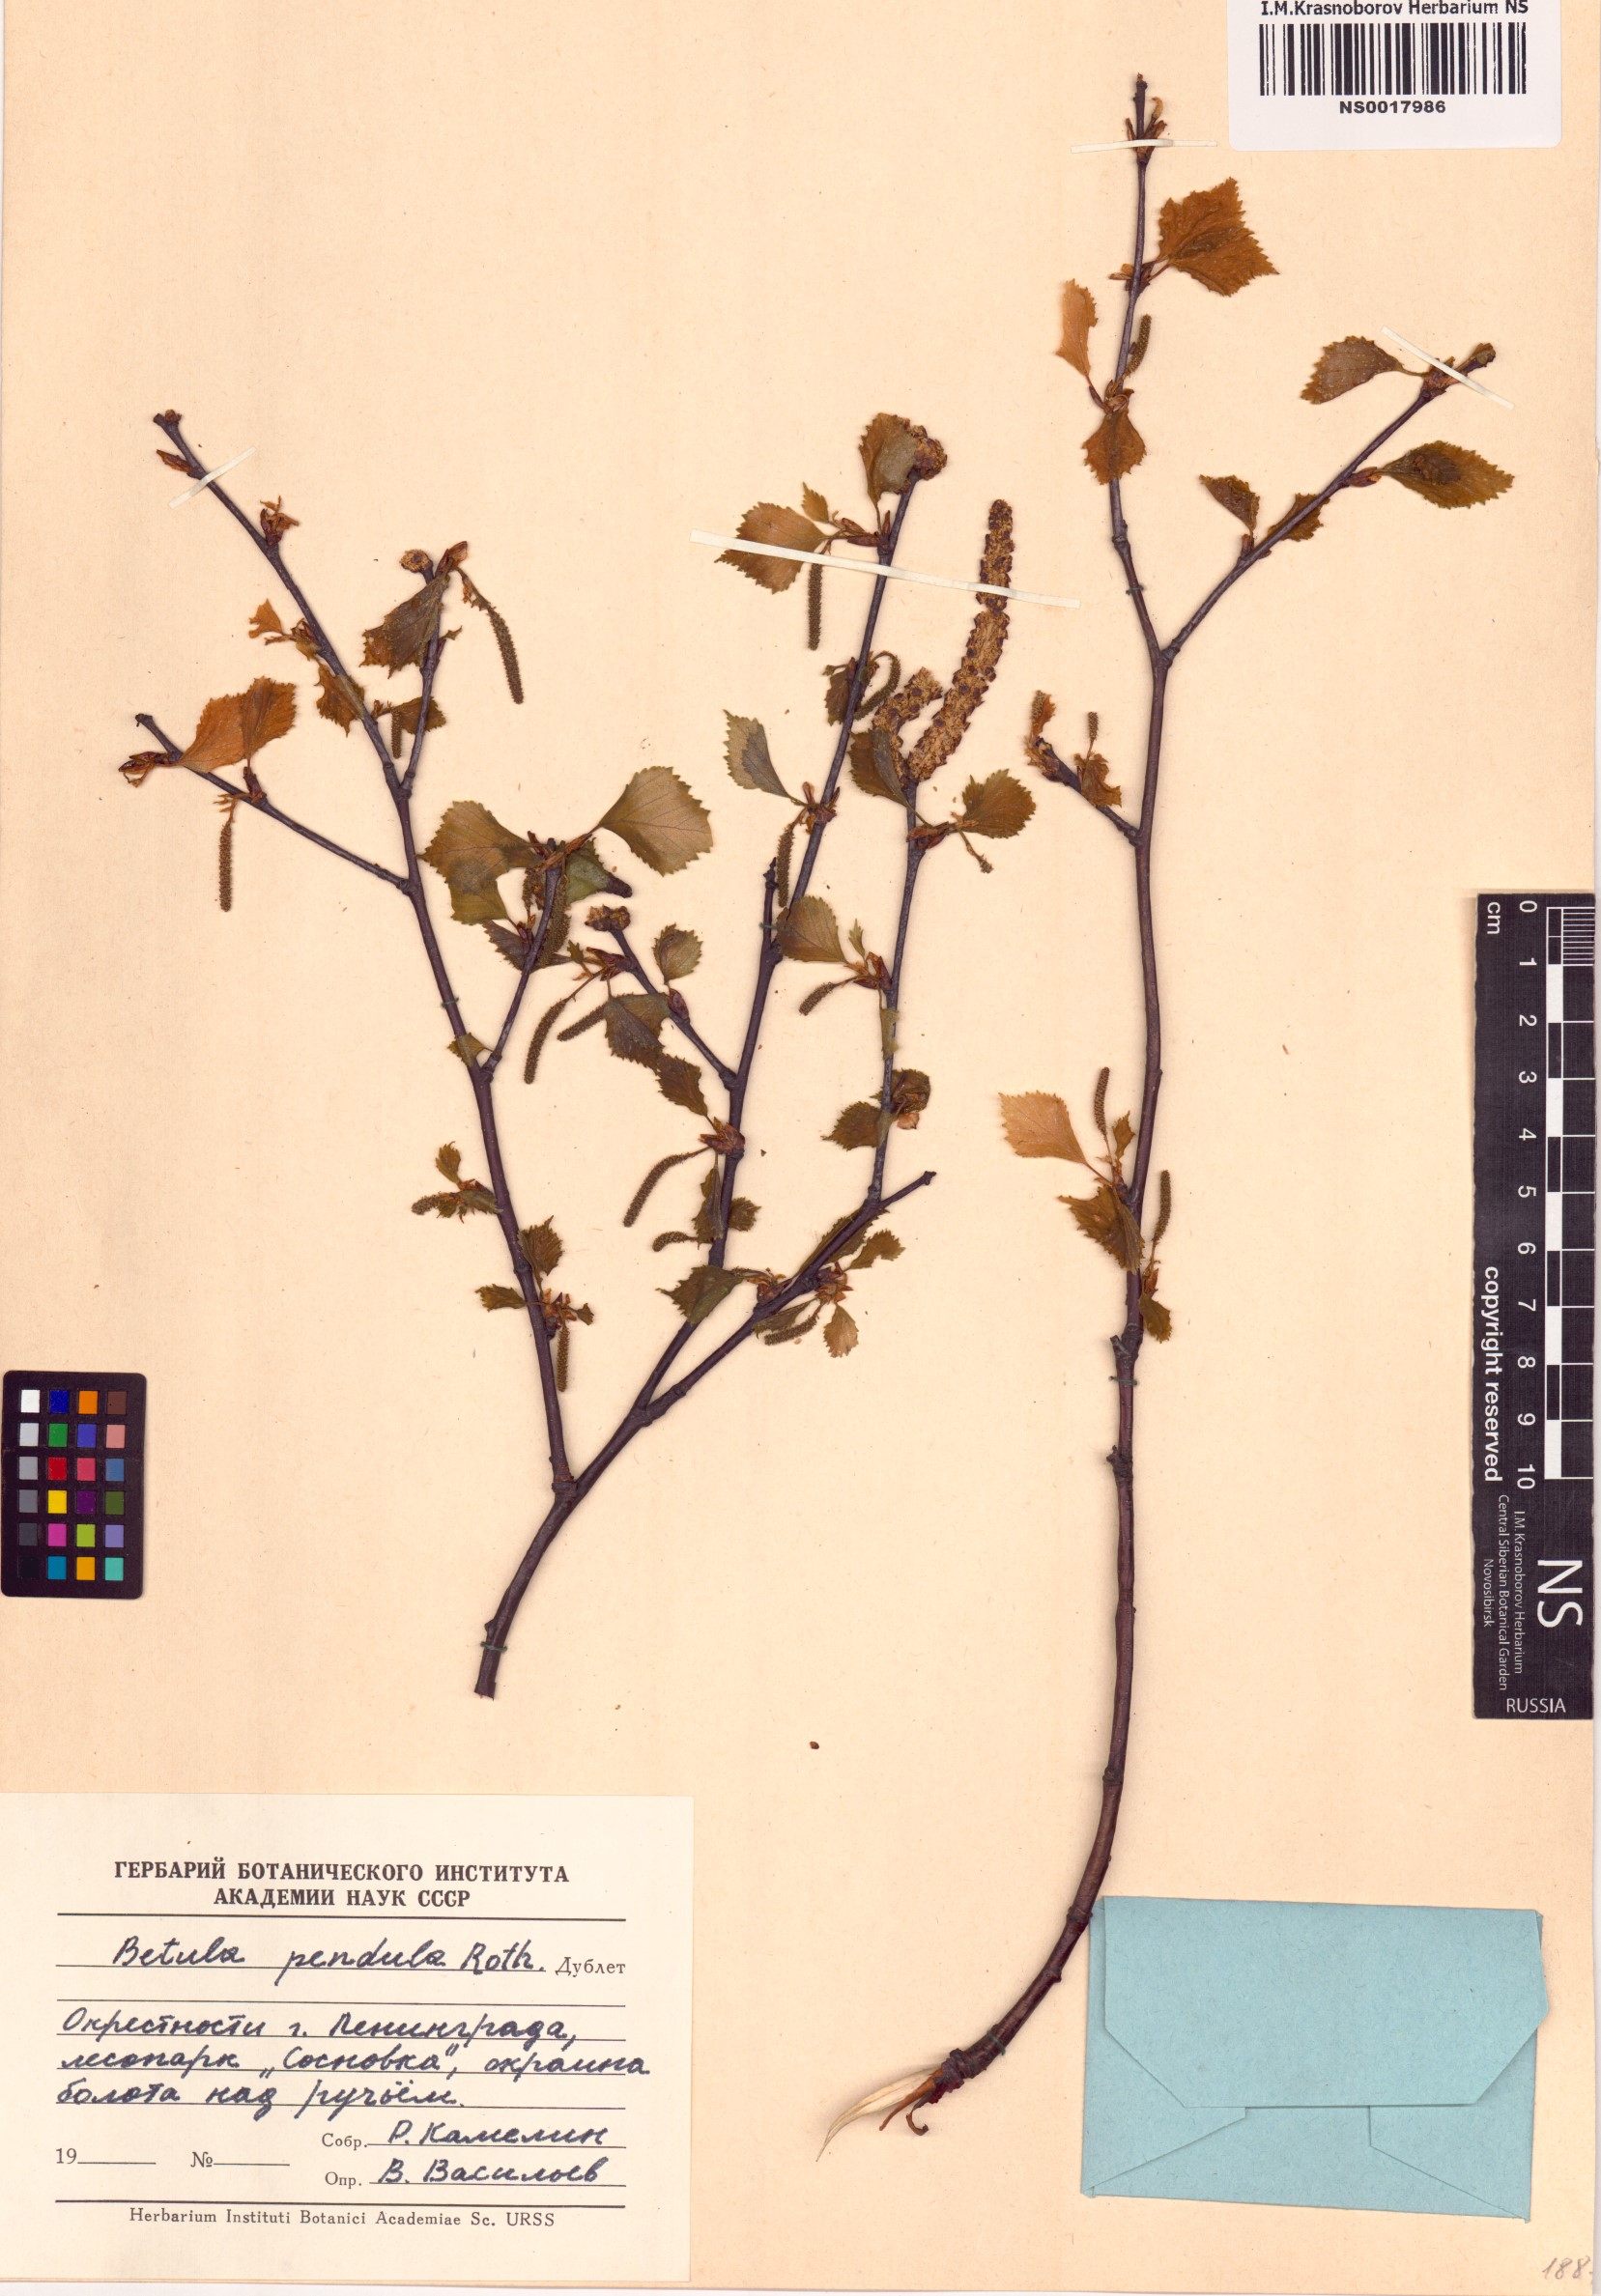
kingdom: Plantae
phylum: Tracheophyta
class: Magnoliopsida
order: Fagales
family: Betulaceae
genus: Betula
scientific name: Betula pendula
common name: Silver birch
